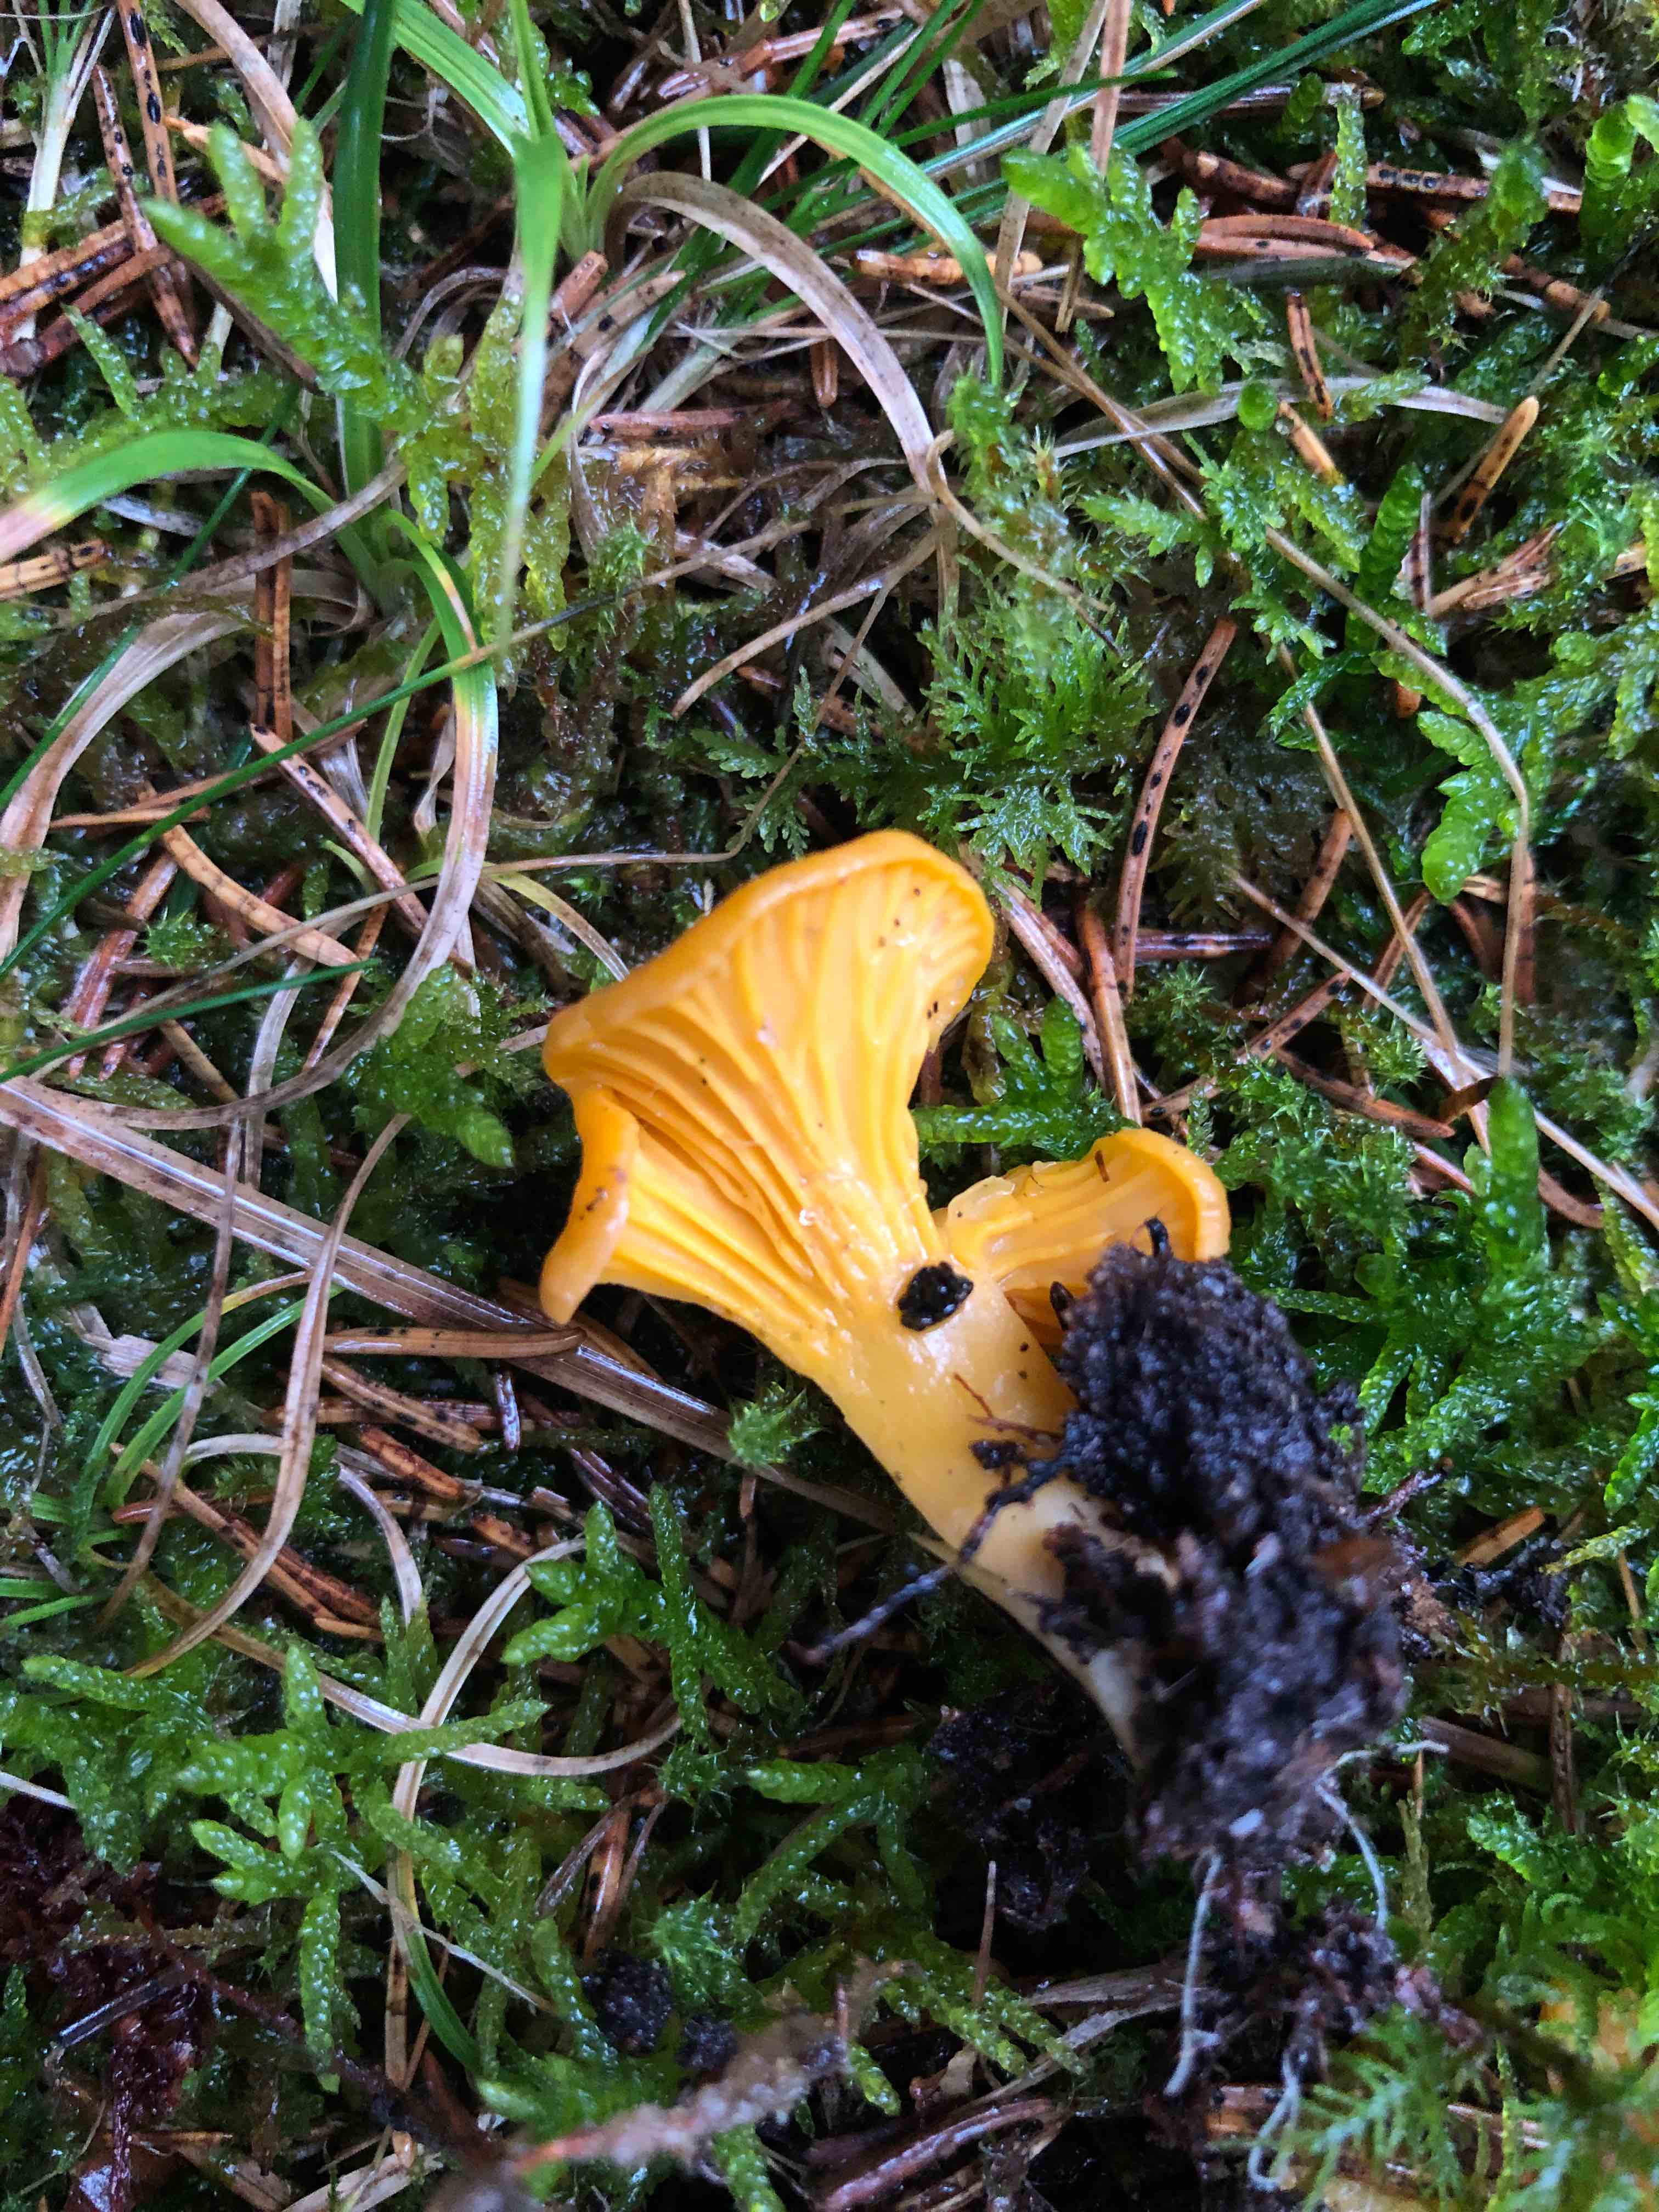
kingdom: Fungi
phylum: Basidiomycota
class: Agaricomycetes
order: Cantharellales
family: Hydnaceae
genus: Cantharellus
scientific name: Cantharellus cibarius
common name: almindelig kantarel
